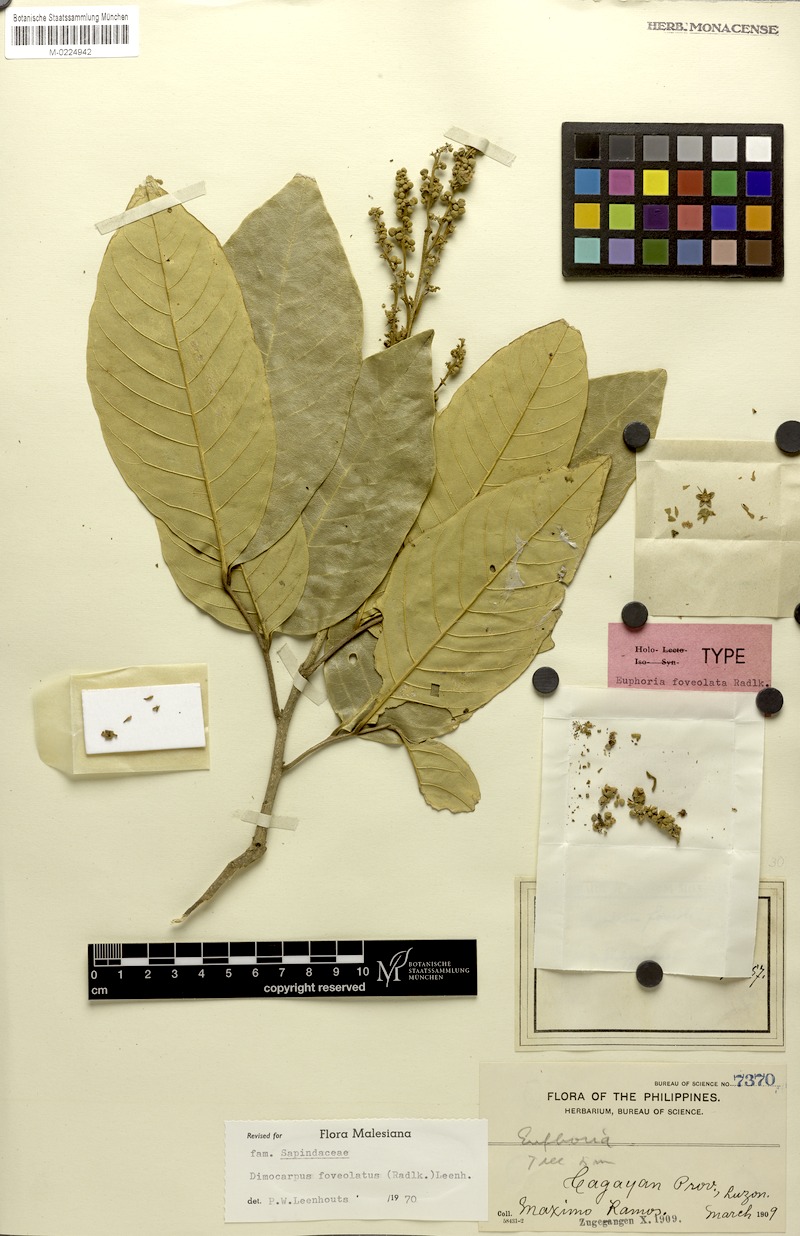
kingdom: Plantae
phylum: Tracheophyta
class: Magnoliopsida
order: Sapindales
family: Sapindaceae
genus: Dimocarpus
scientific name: Dimocarpus foveolatus
